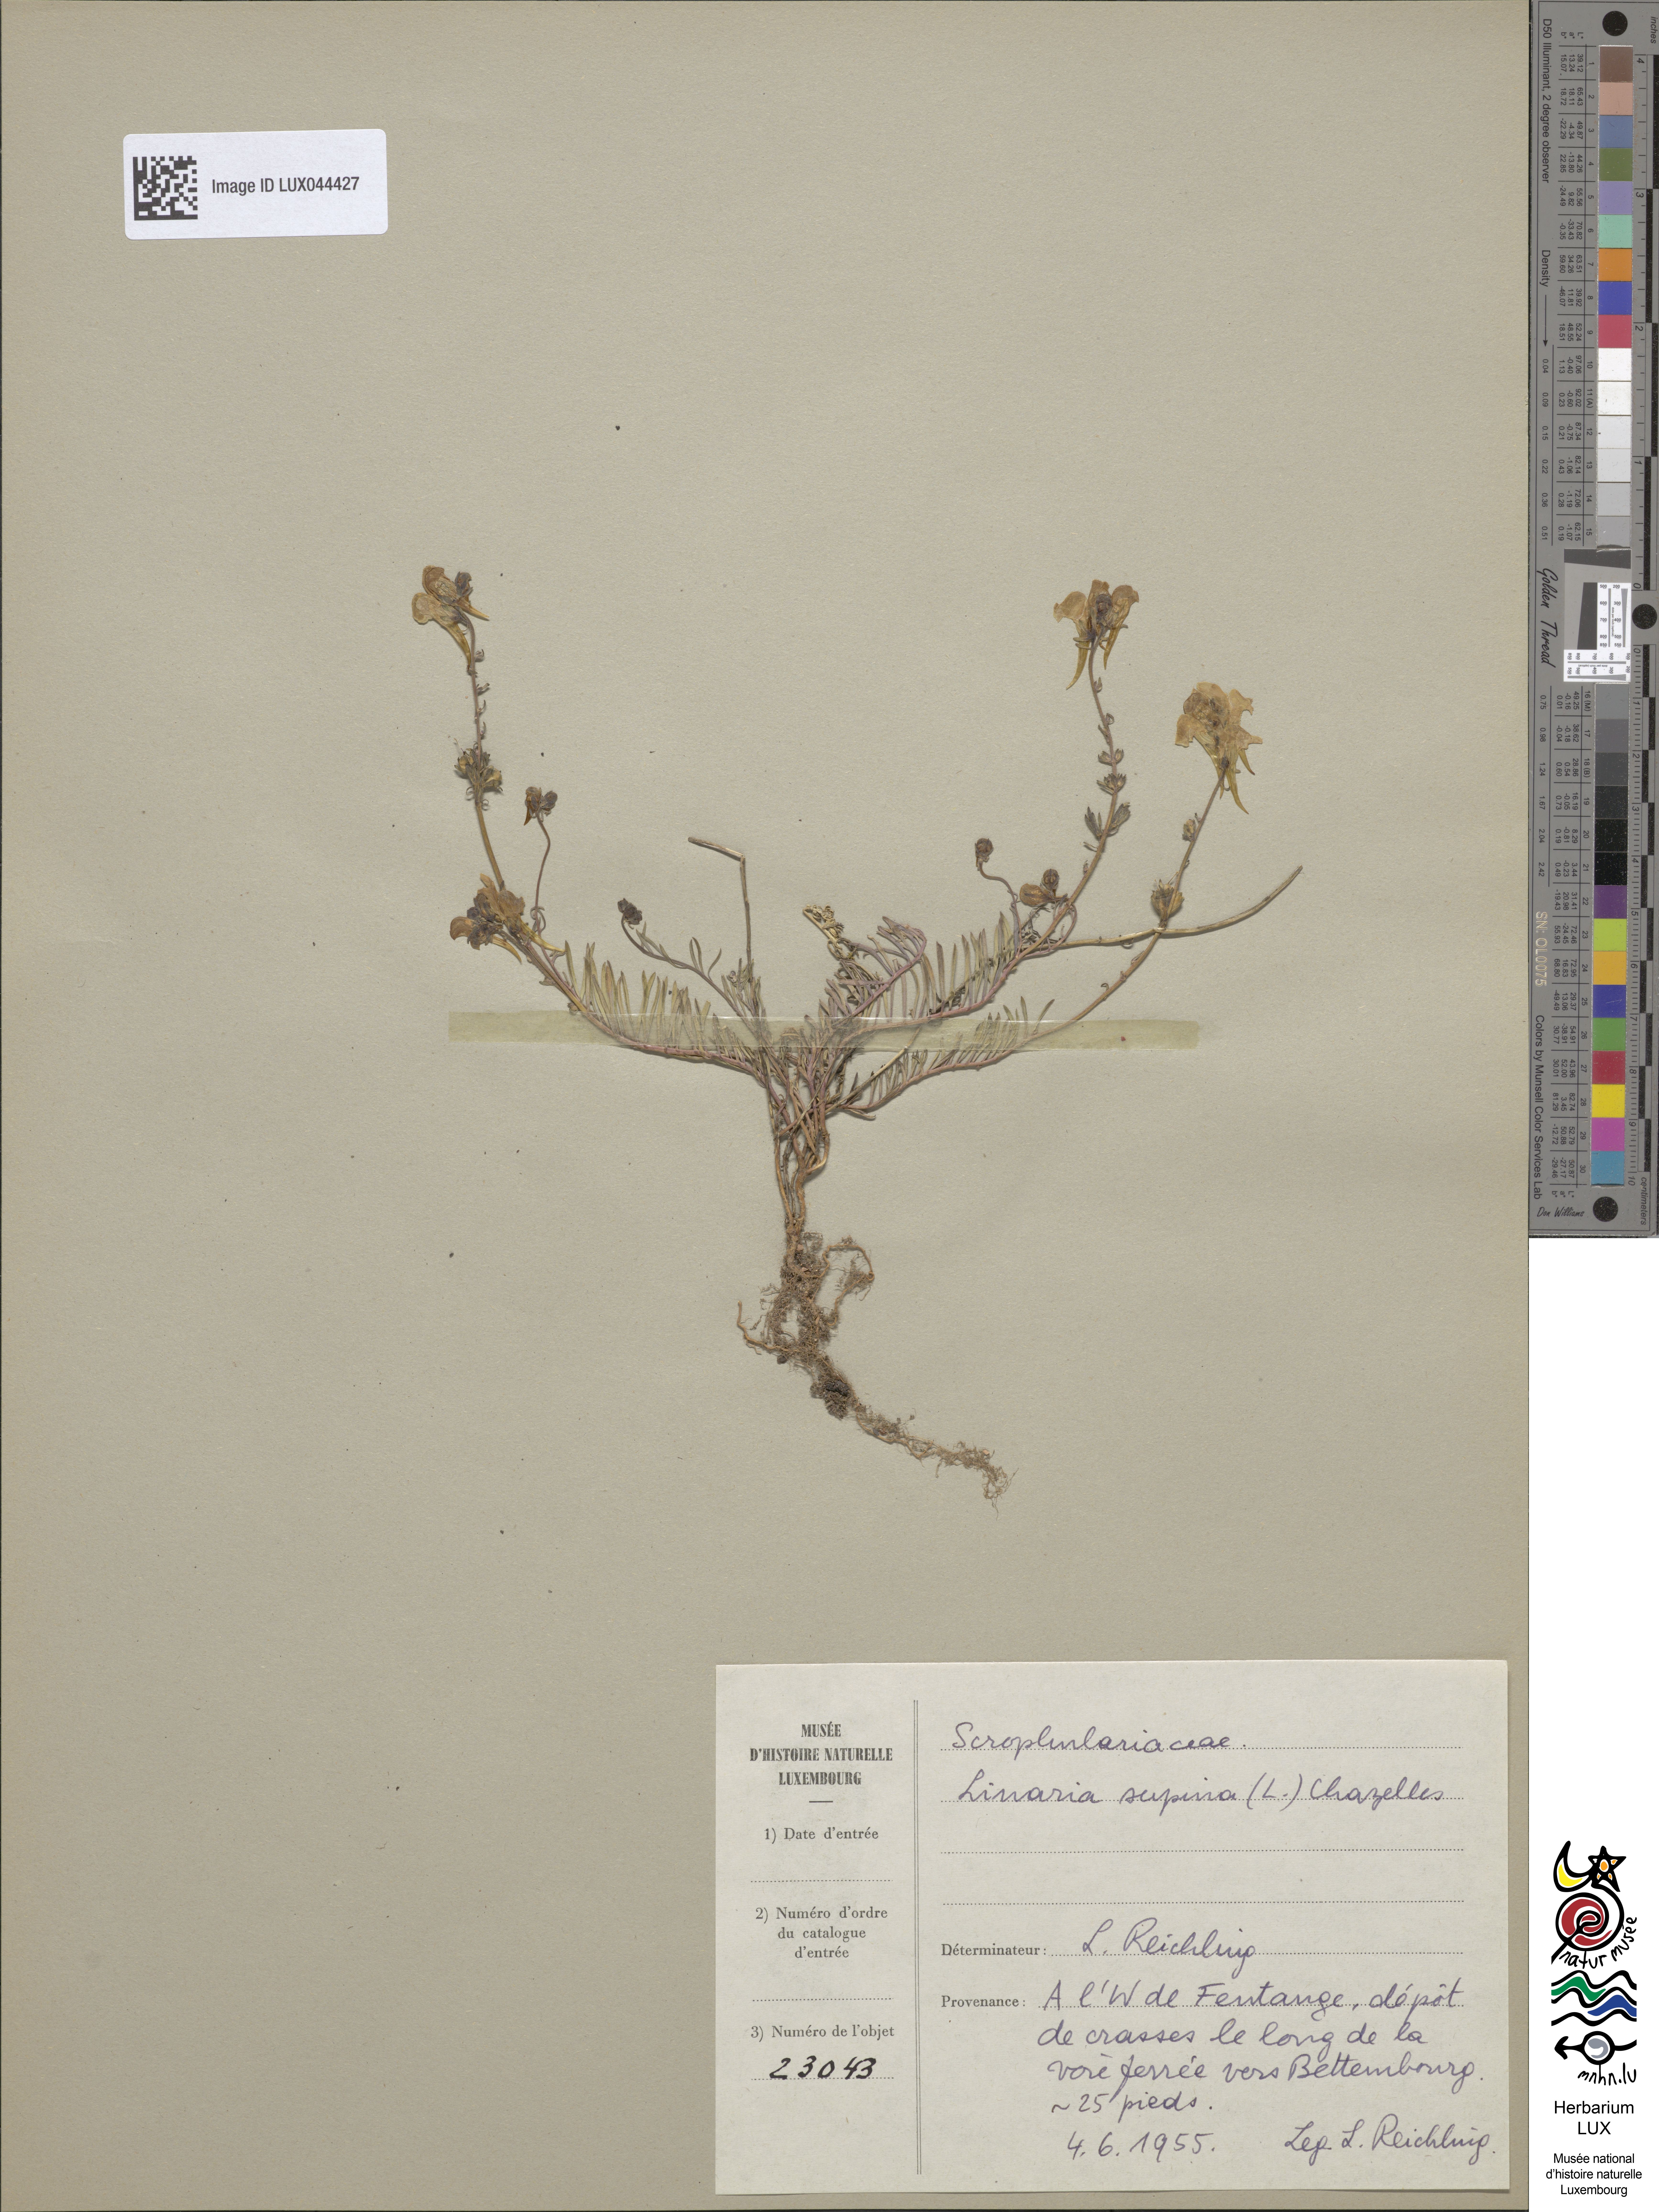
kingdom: Plantae
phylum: Tracheophyta
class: Magnoliopsida
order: Lamiales
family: Plantaginaceae
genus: Linaria
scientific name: Linaria supina
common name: Prostrate toadflax
